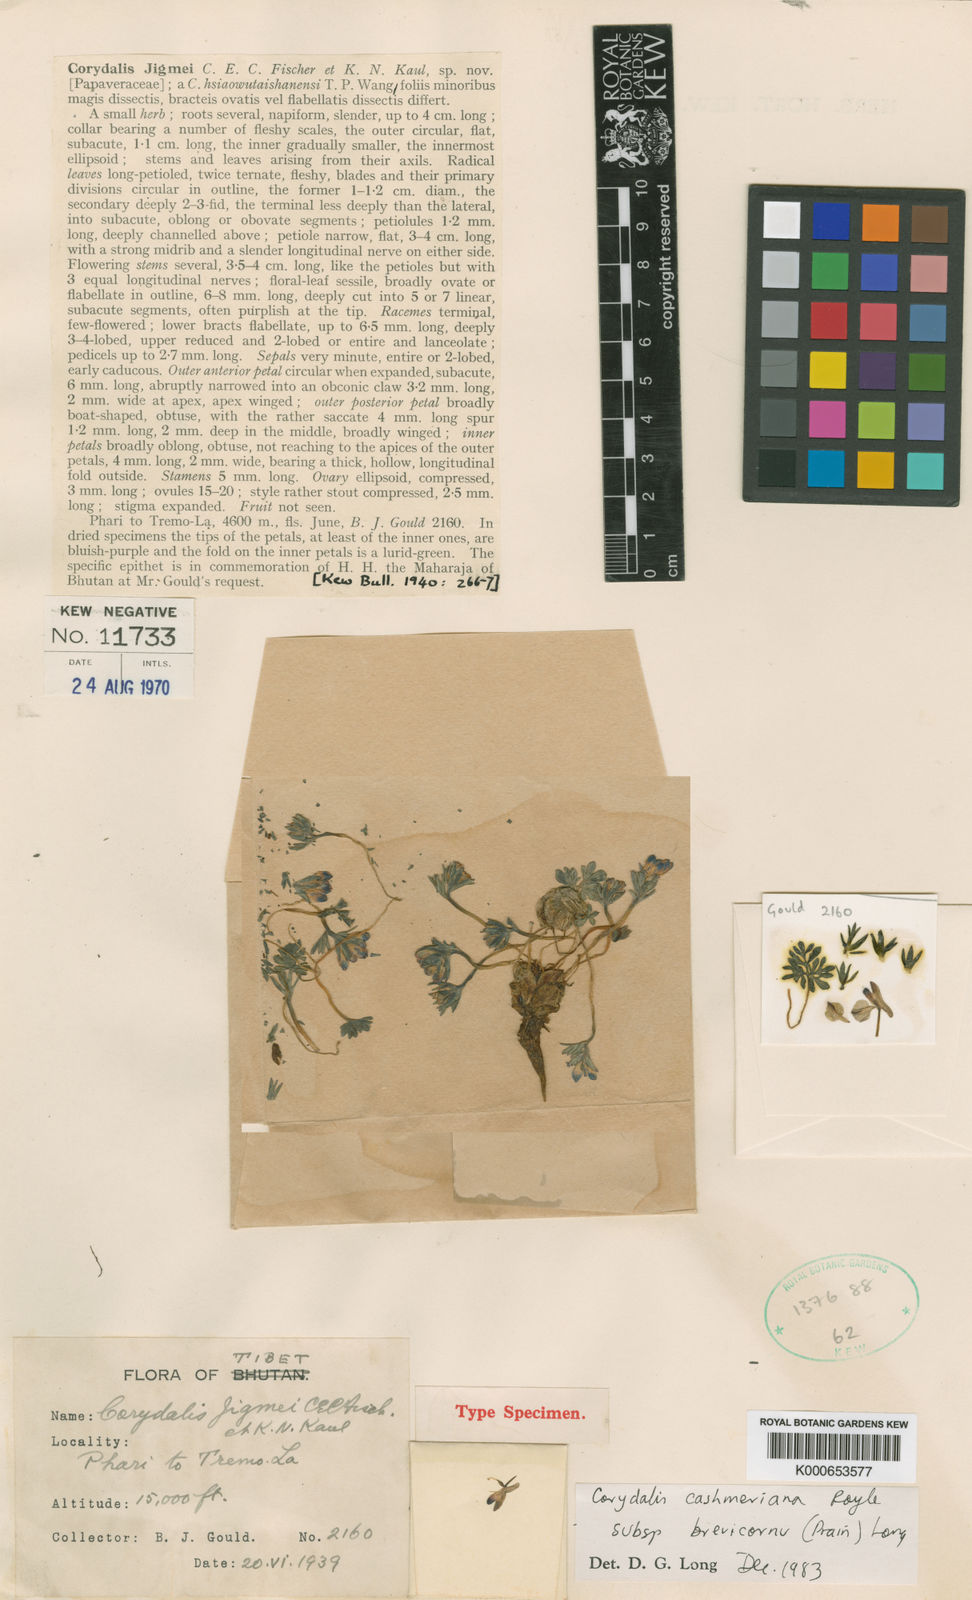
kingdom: Plantae
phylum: Tracheophyta
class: Magnoliopsida
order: Ranunculales
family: Papaveraceae
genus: Corydalis
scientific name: Corydalis cashmeriana
